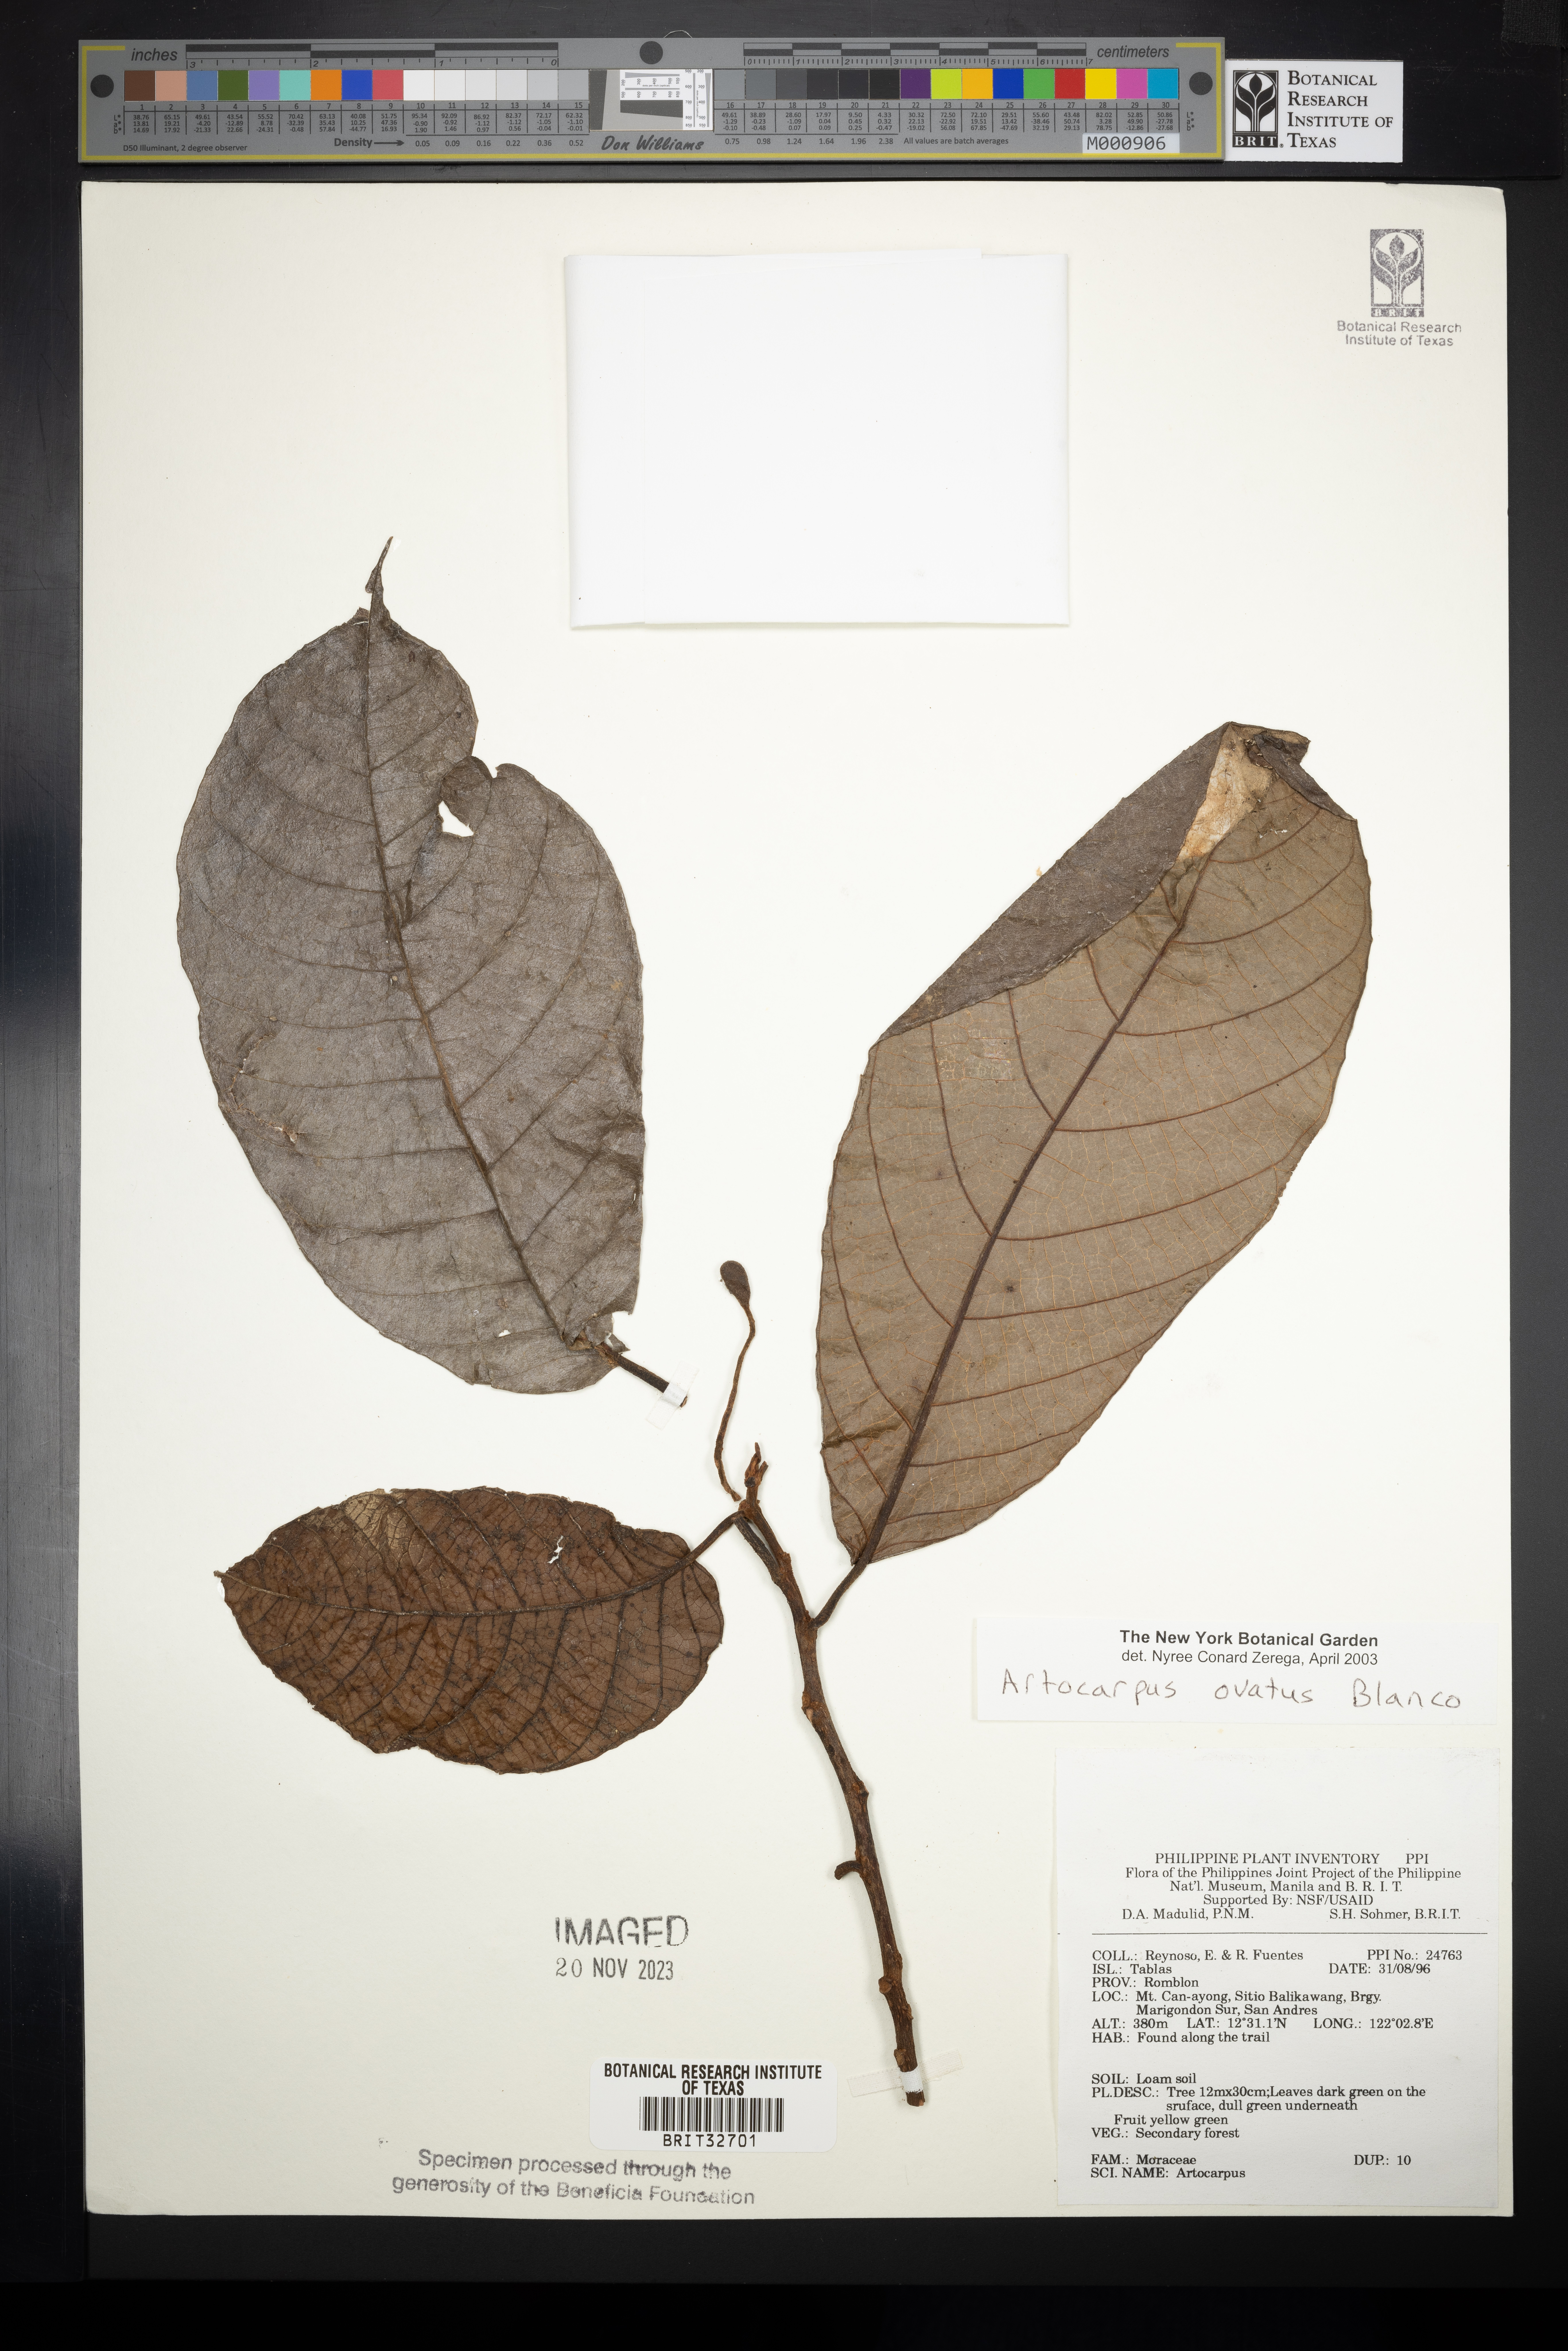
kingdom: Plantae
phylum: Tracheophyta
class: Magnoliopsida
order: Rosales
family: Moraceae
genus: Artocarpus
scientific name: Artocarpus lacucha
